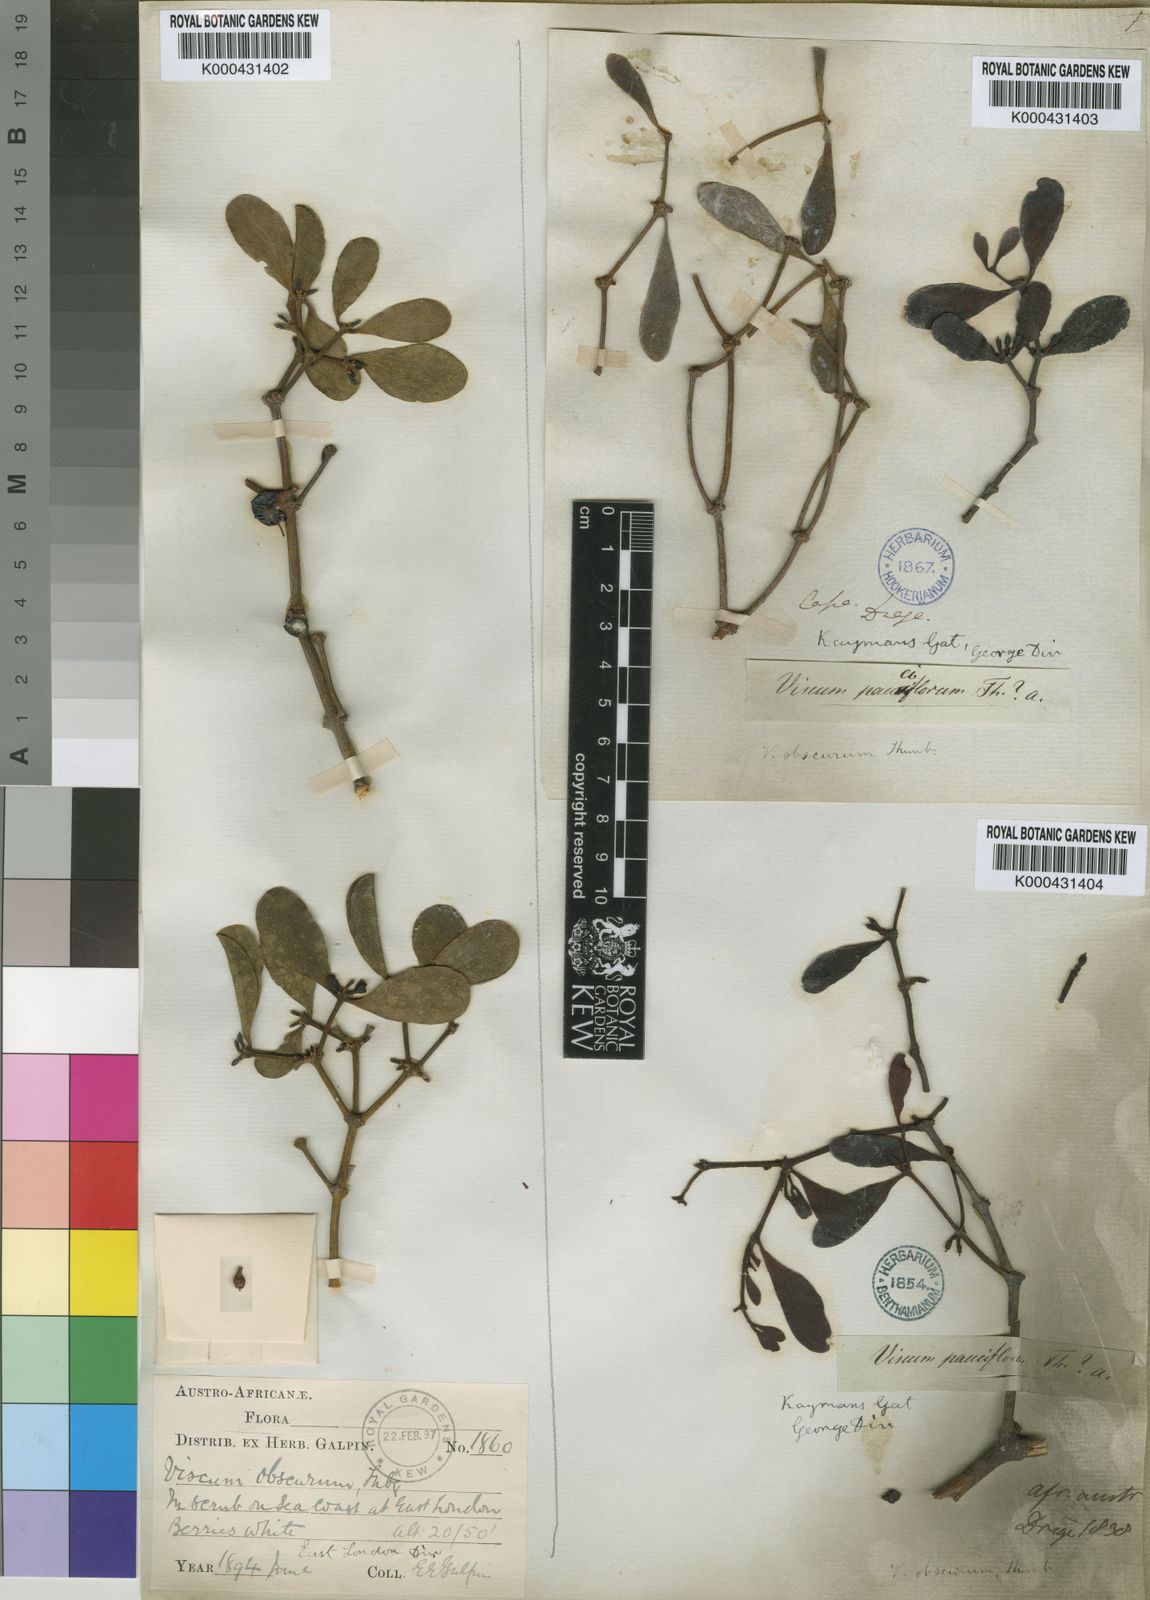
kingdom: Plantae
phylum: Tracheophyta
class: Magnoliopsida
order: Santalales
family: Viscaceae
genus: Viscum
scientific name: Viscum obscurum
